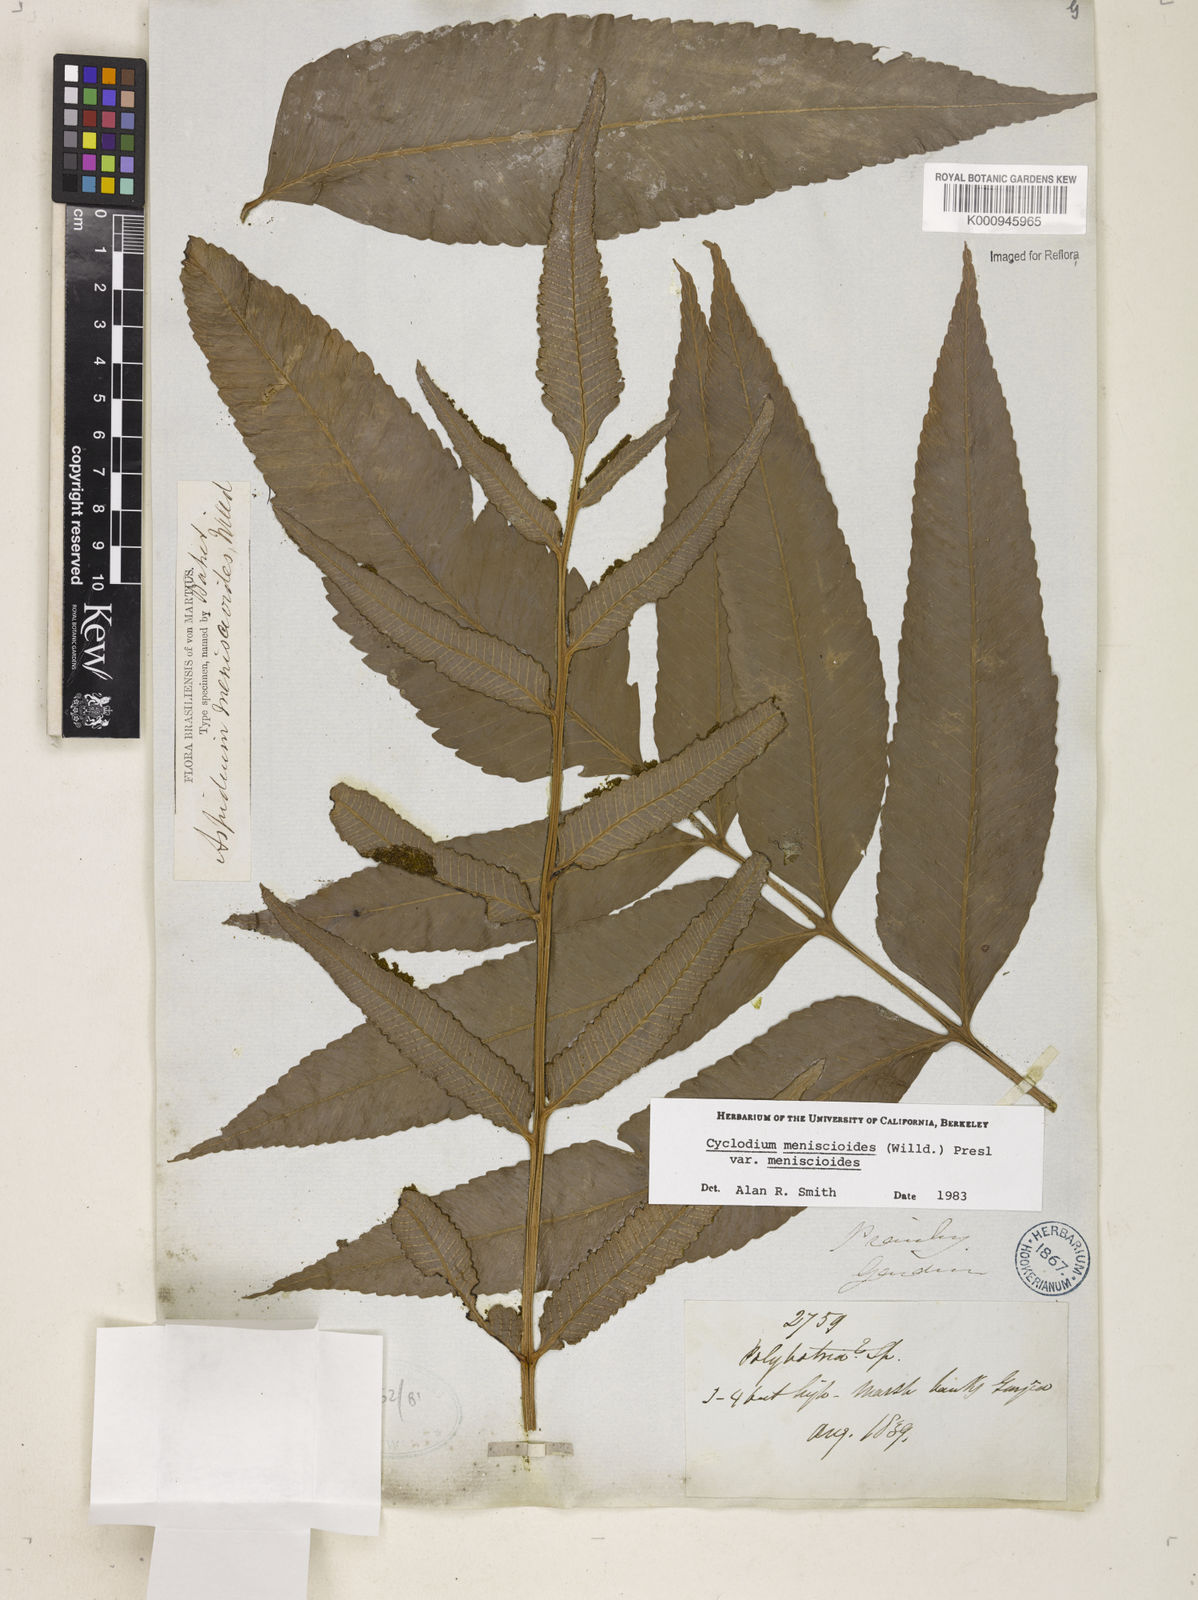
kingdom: Plantae
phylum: Tracheophyta
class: Polypodiopsida
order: Polypodiales
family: Dryopteridaceae
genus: Cyclodium
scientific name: Cyclodium meniscioides
